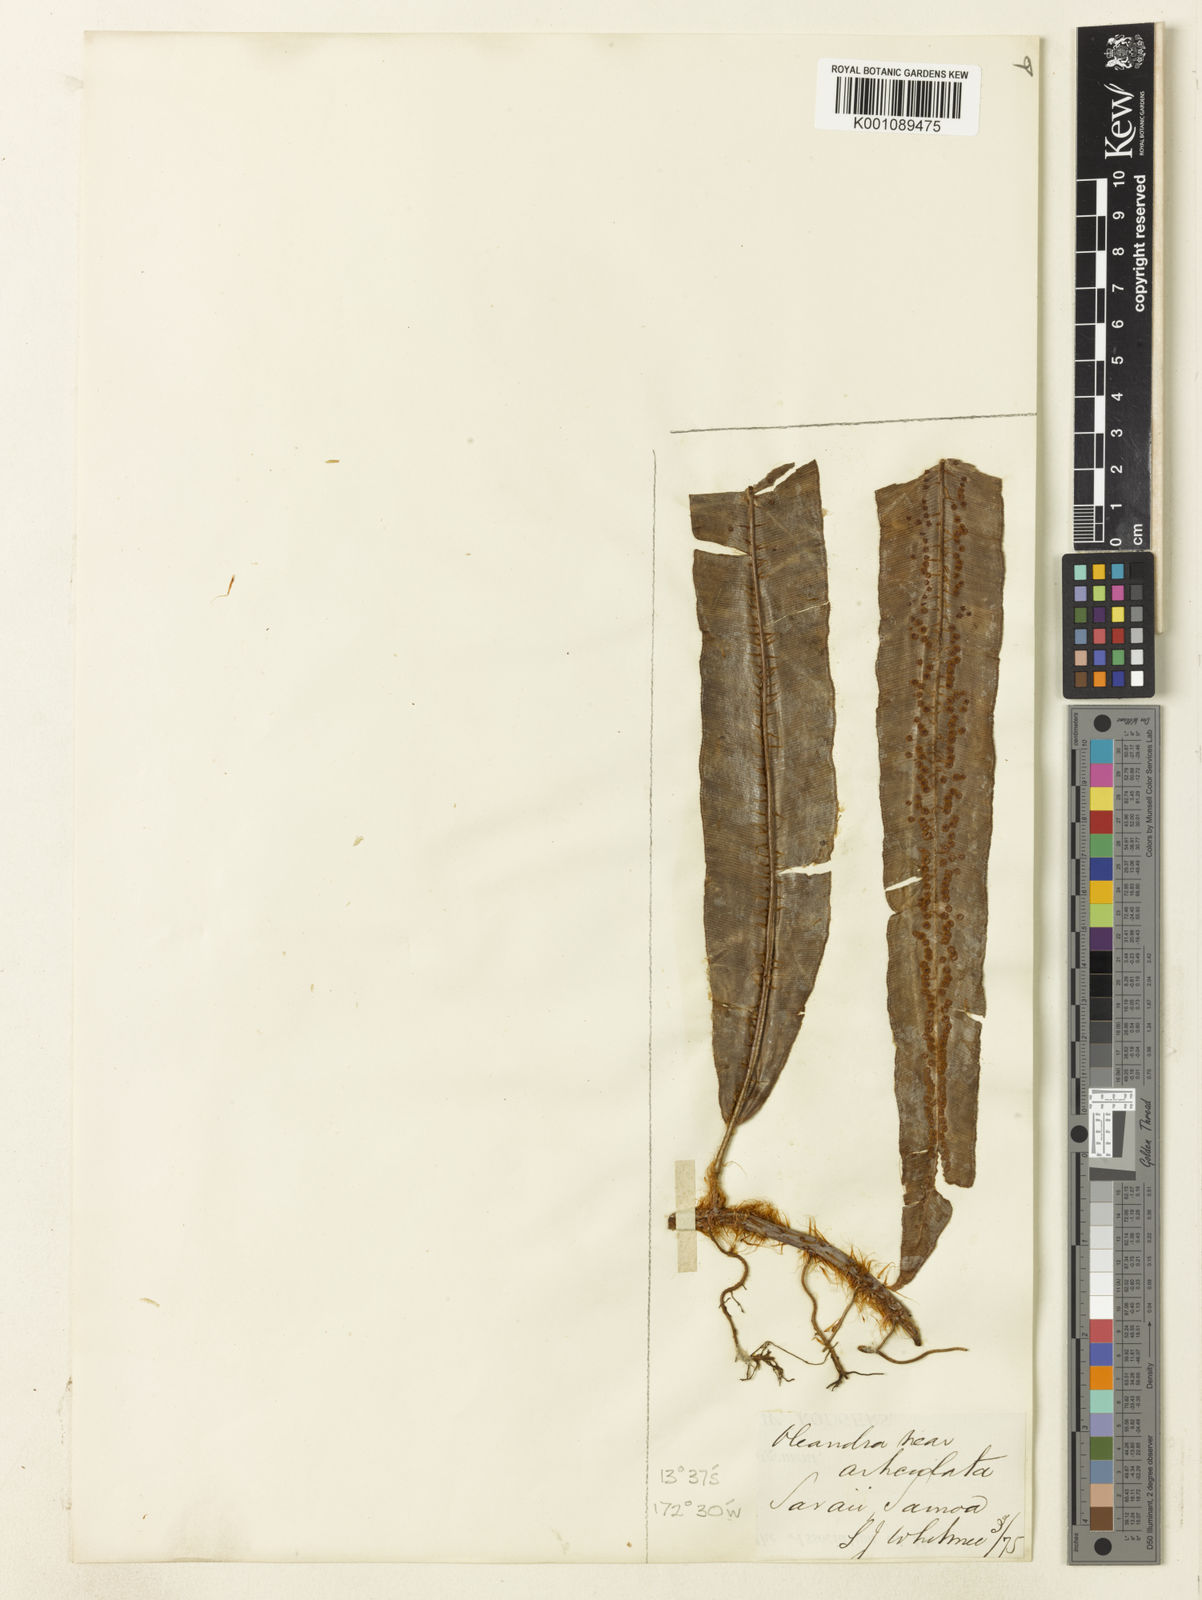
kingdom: Plantae
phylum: Tracheophyta
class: Polypodiopsida
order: Polypodiales
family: Oleandraceae
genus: Oleandra
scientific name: Oleandra sibbaldii
